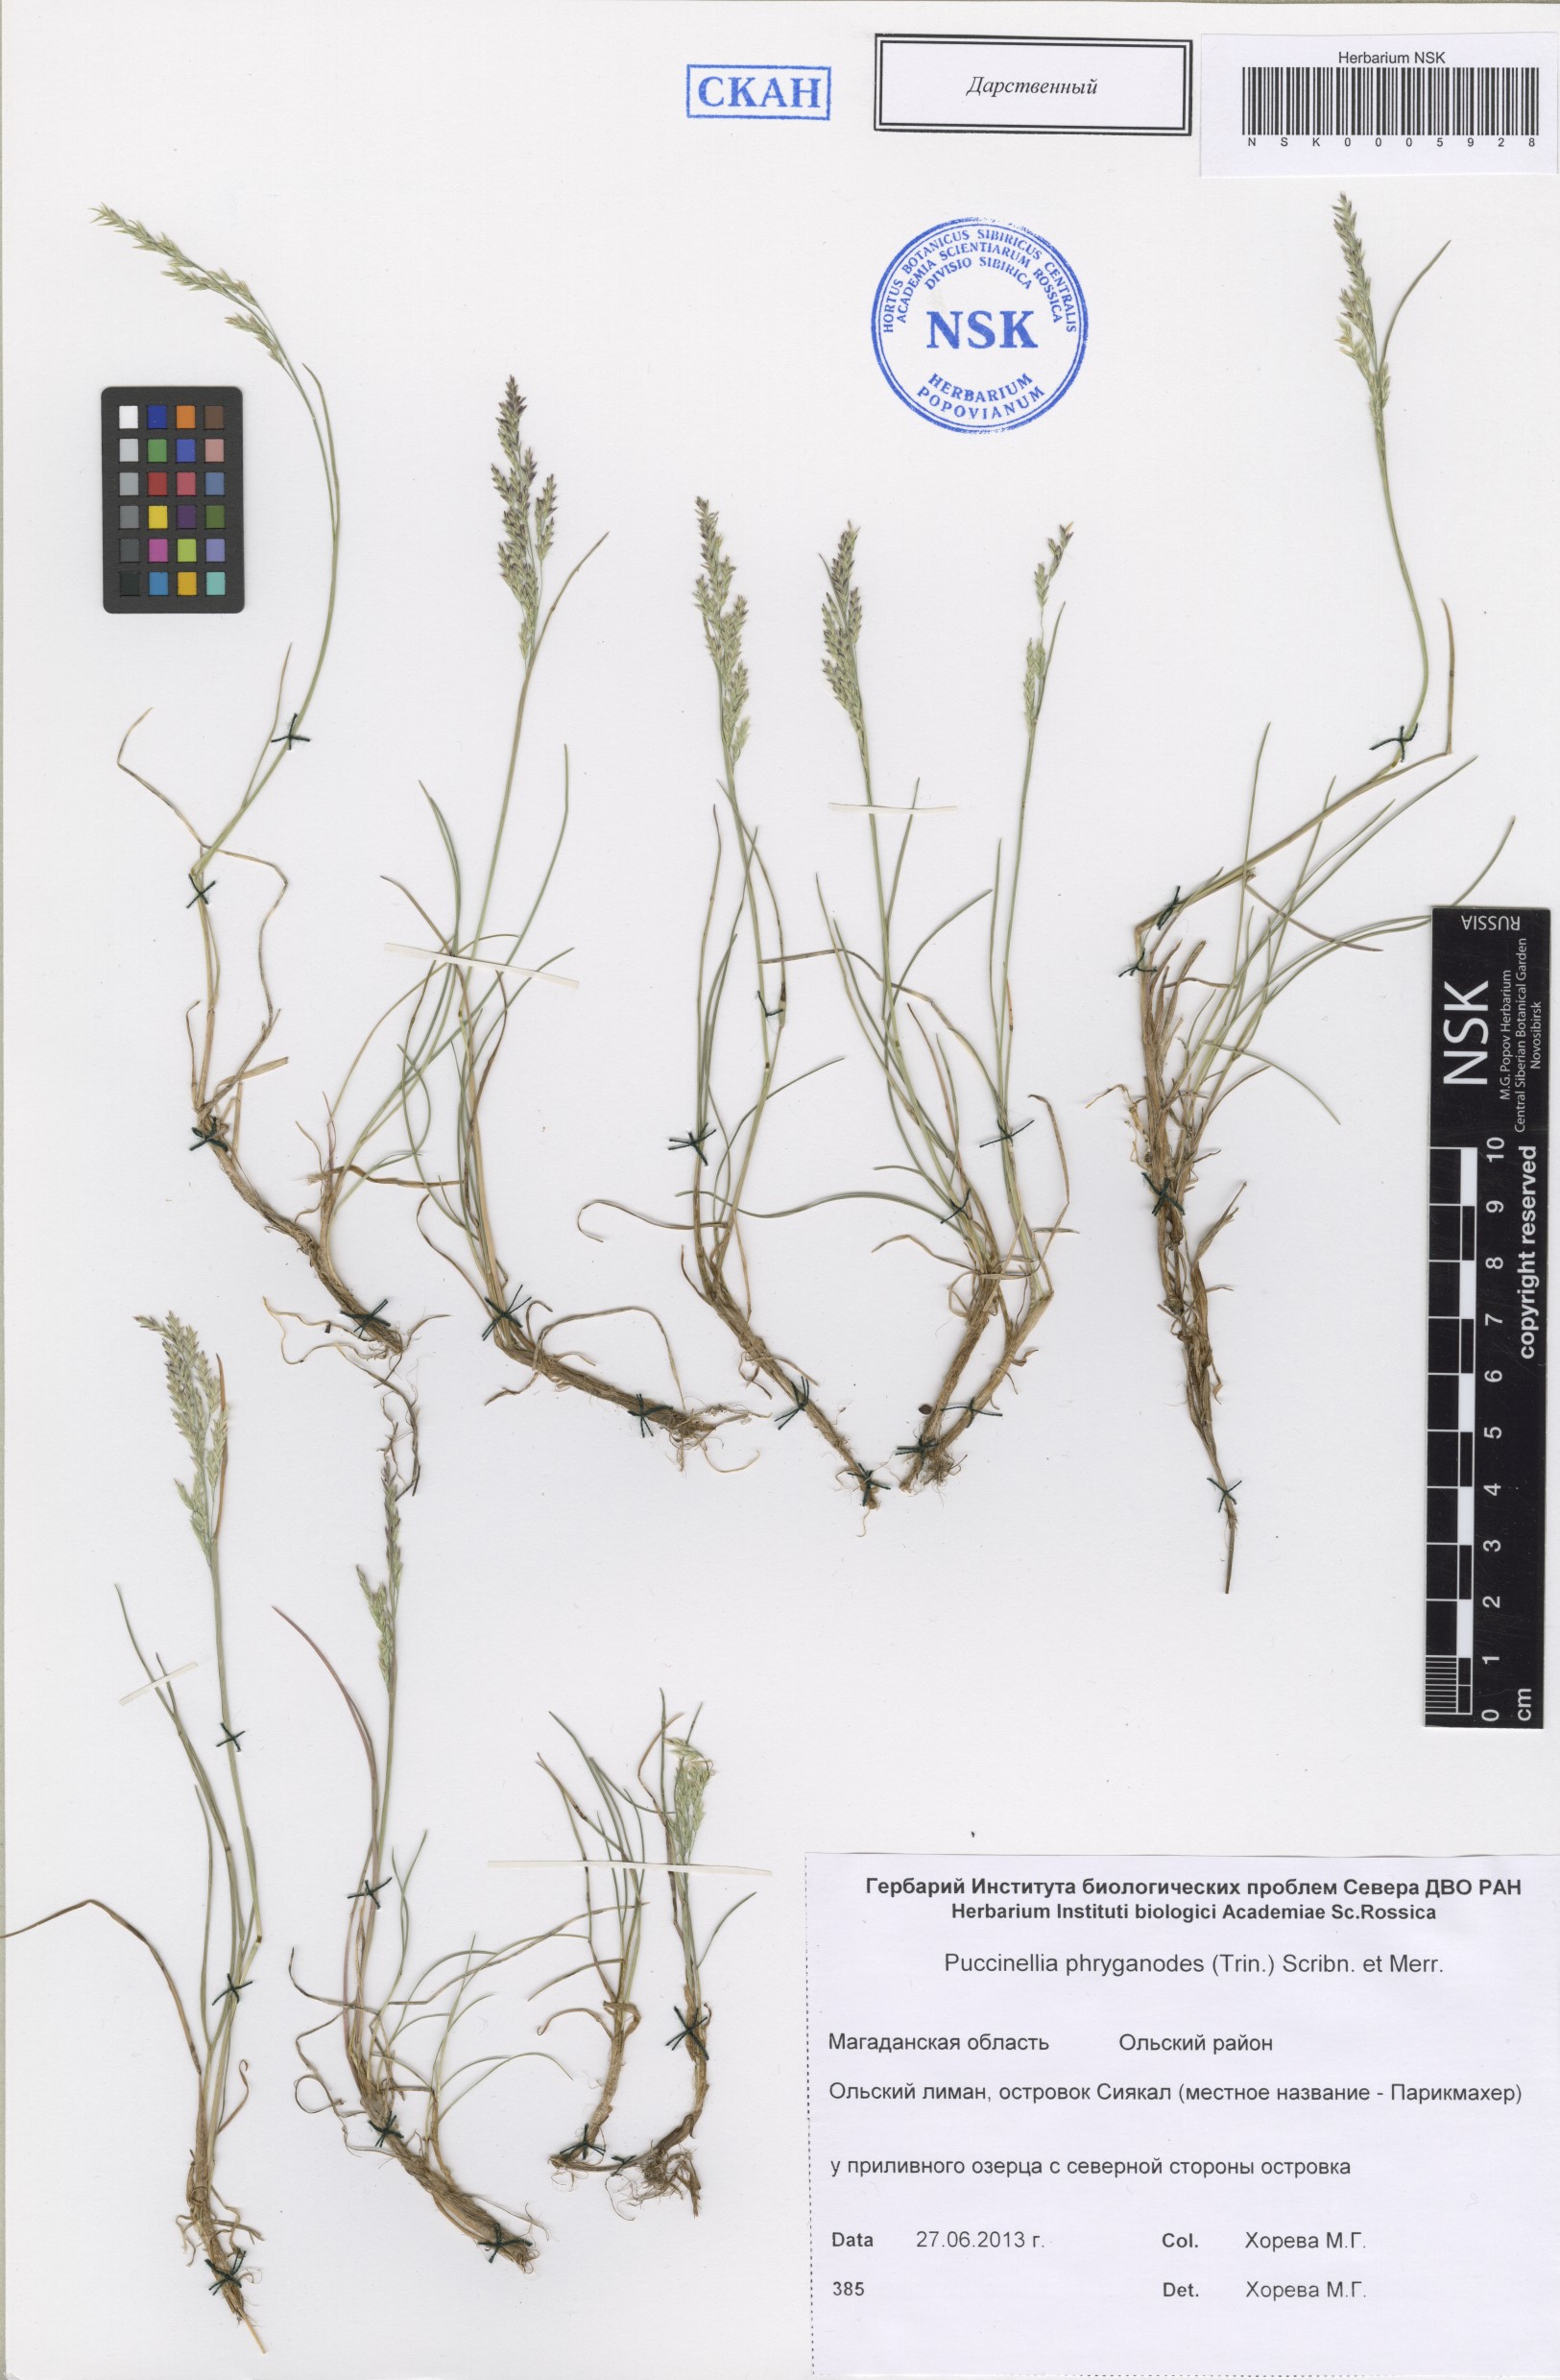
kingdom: Plantae
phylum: Tracheophyta
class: Liliopsida
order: Poales
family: Poaceae
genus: Puccinellia
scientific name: Puccinellia phryganodes
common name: Creeping alkaligrass
